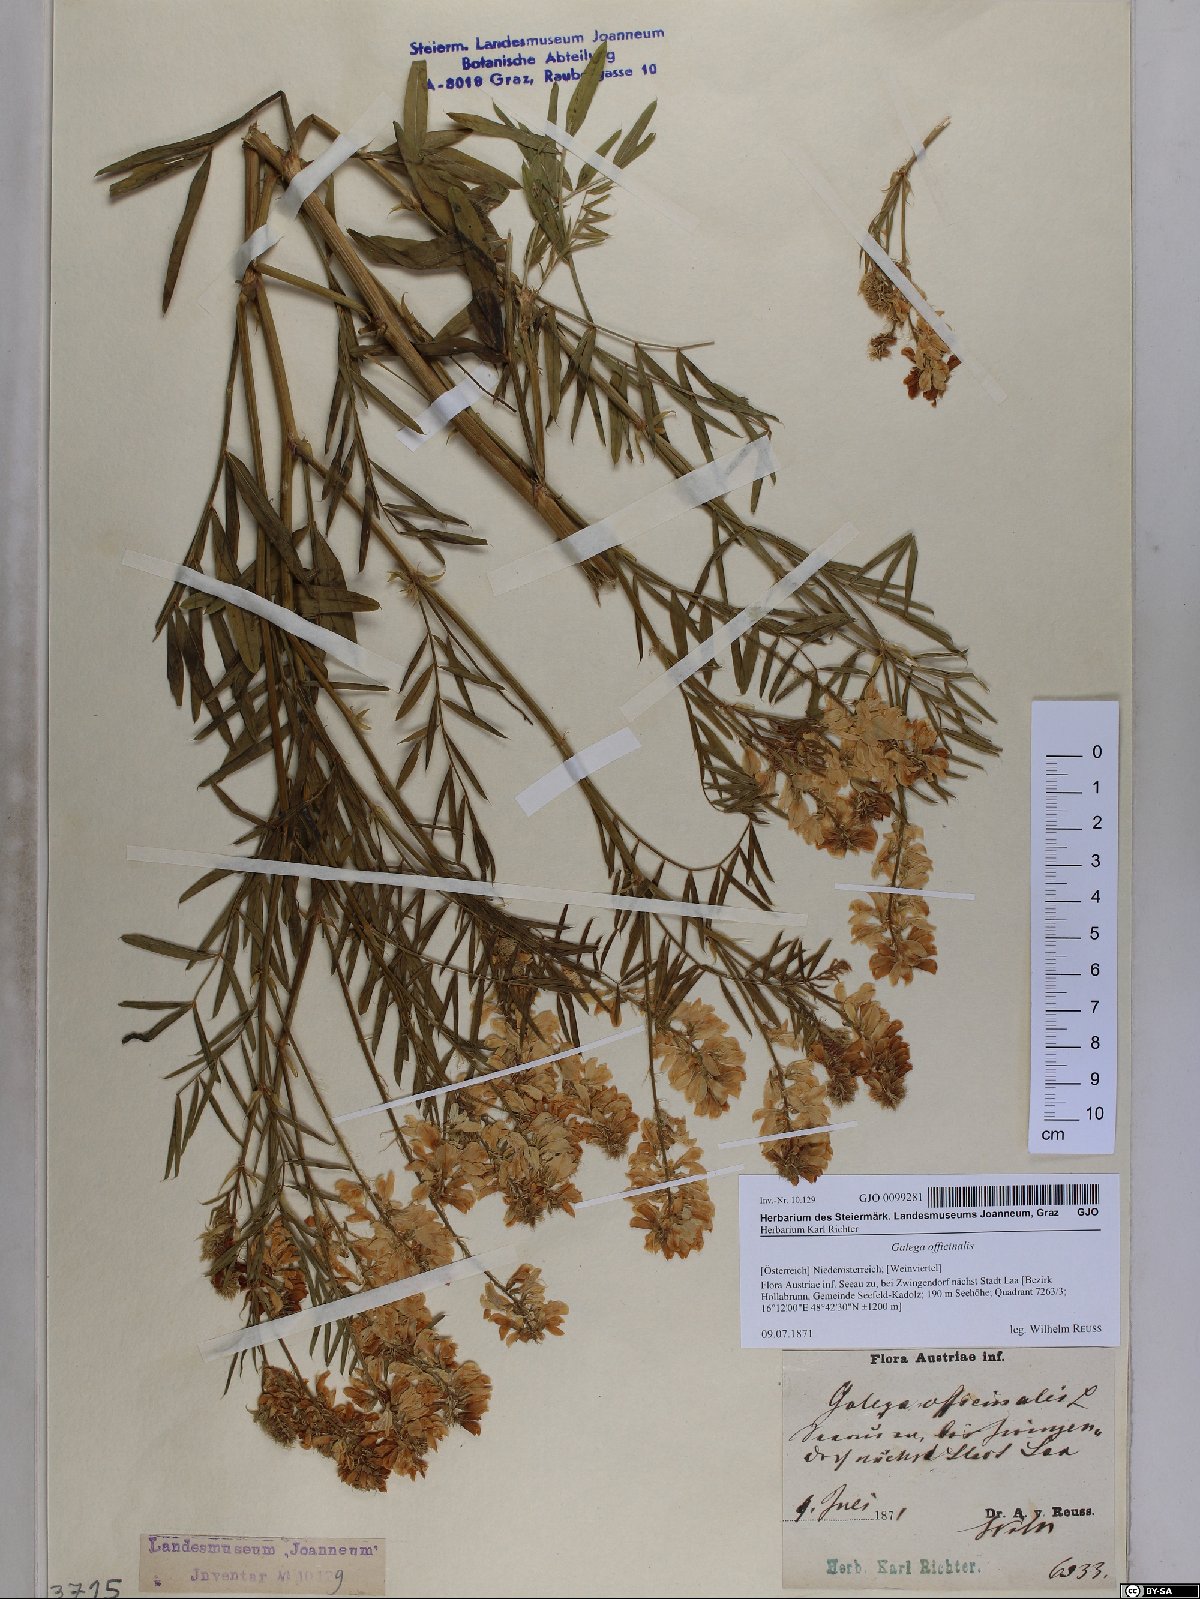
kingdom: Plantae
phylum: Tracheophyta
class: Magnoliopsida
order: Fabales
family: Fabaceae
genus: Galega
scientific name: Galega officinalis
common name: Goat's-rue
